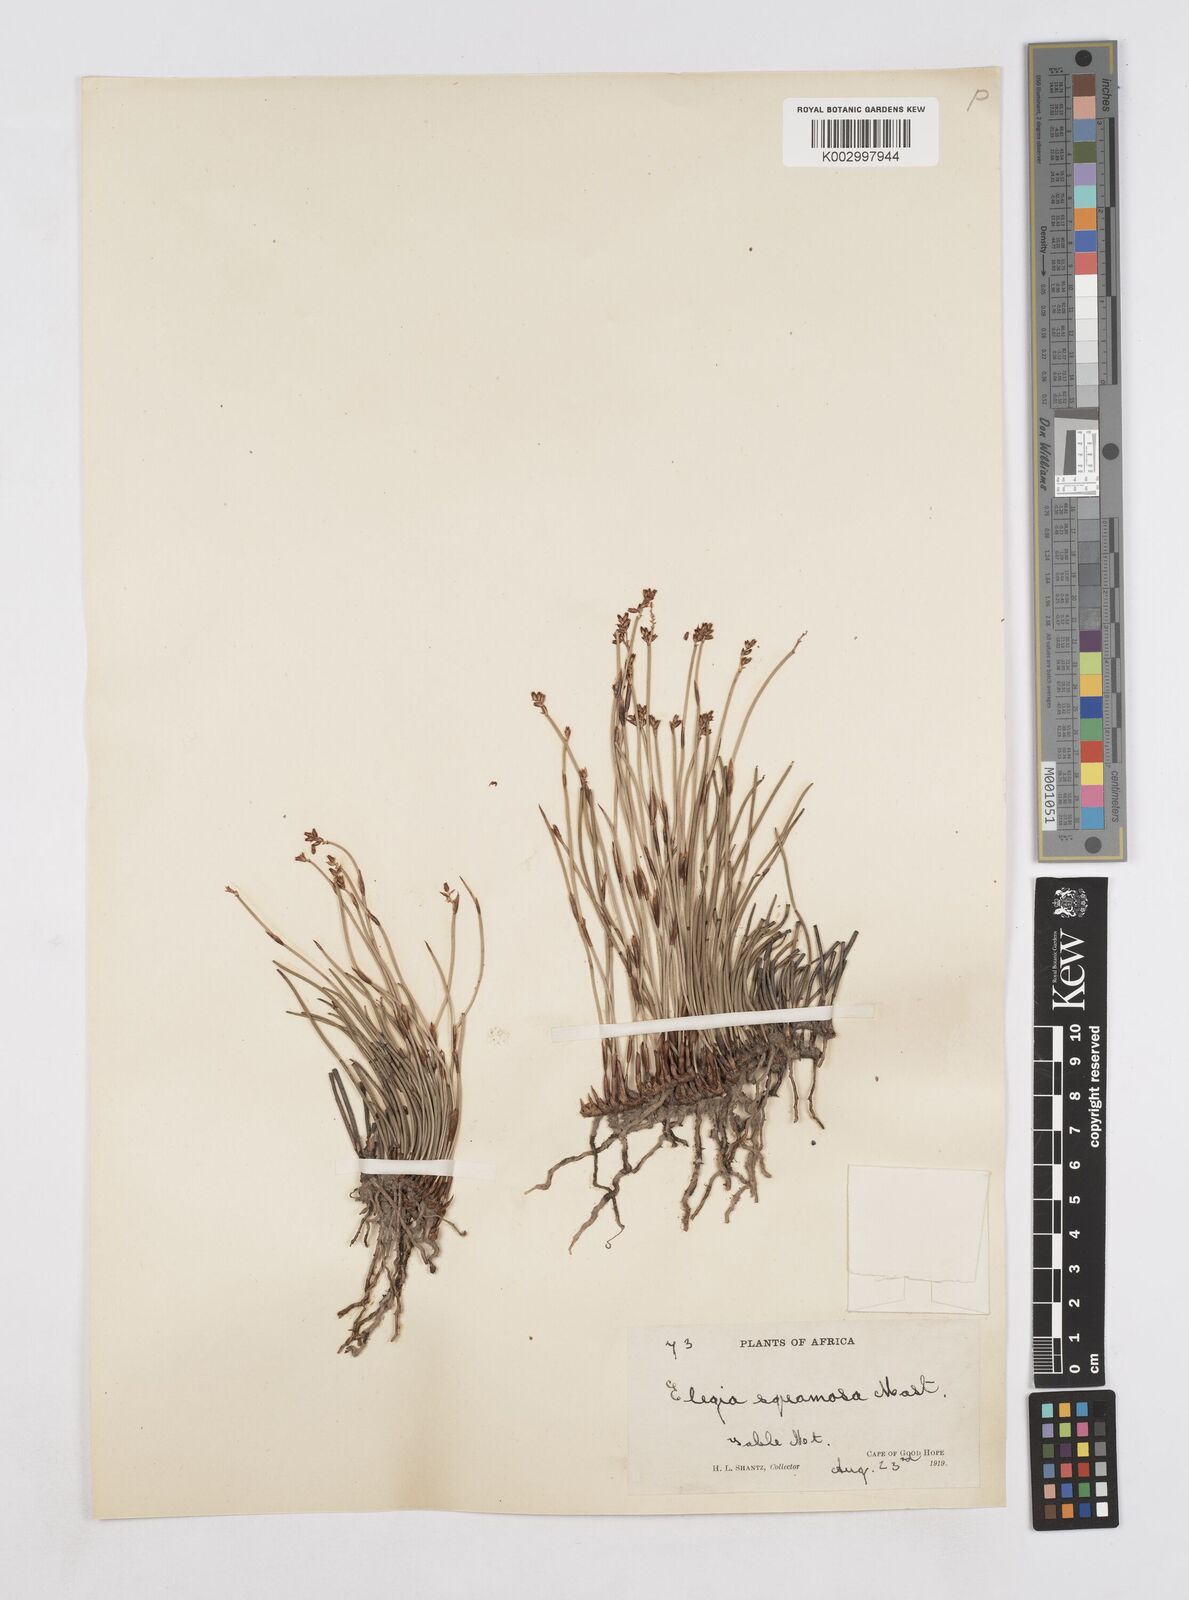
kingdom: Plantae
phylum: Tracheophyta
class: Liliopsida
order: Poales
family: Restionaceae
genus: Elegia
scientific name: Elegia squamosa
